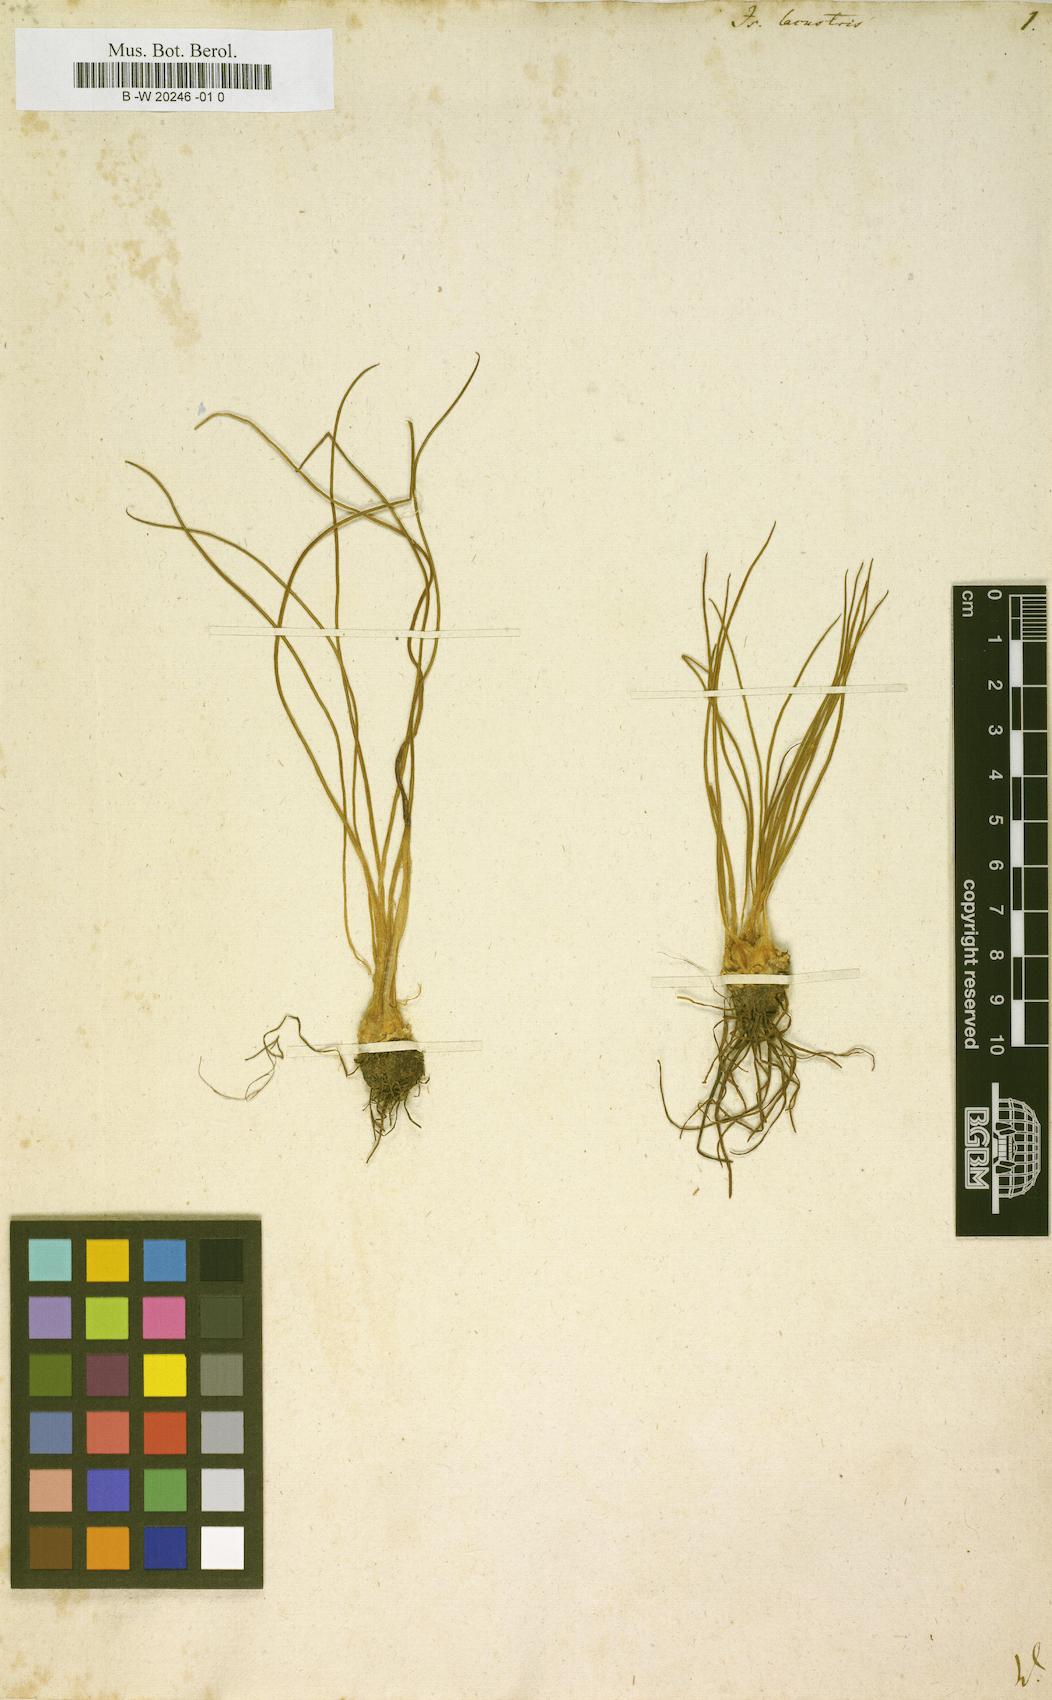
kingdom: Plantae
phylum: Tracheophyta
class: Lycopodiopsida
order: Isoetales
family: Isoetaceae
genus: Isoetes
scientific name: Isoetes lacustris
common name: Common quillwort
